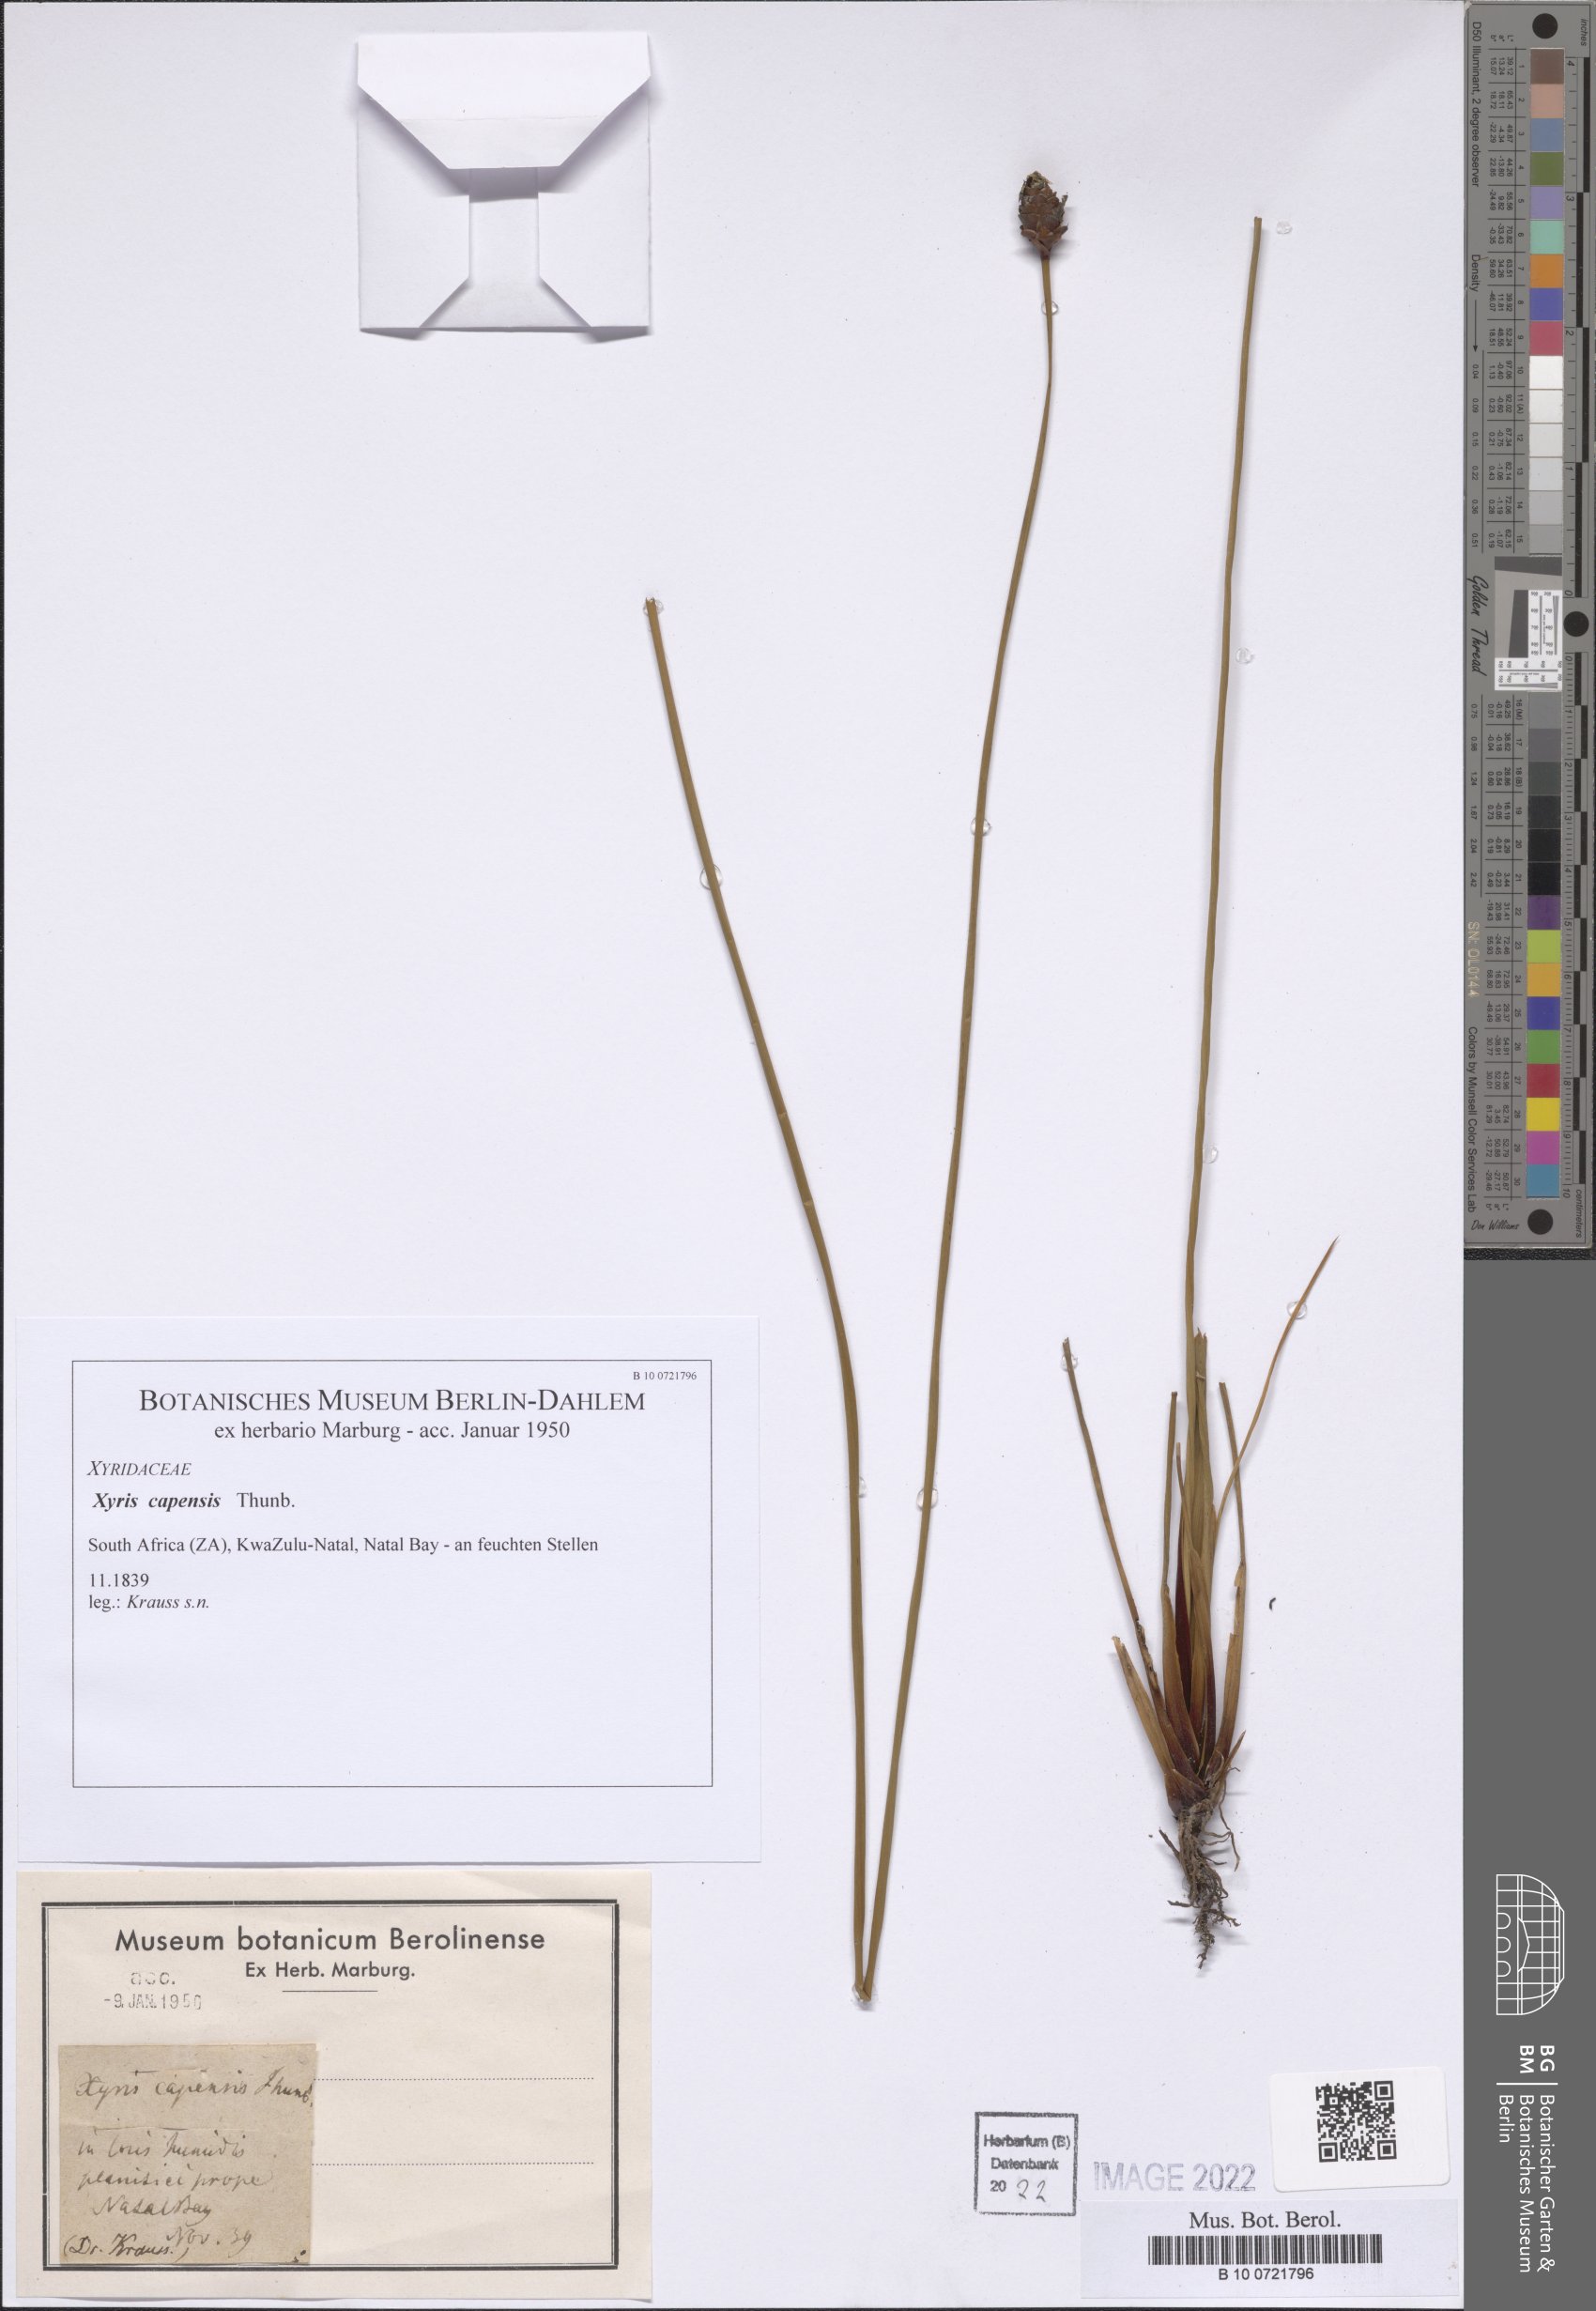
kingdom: Plantae
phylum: Tracheophyta
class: Liliopsida
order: Poales
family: Xyridaceae
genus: Xyris
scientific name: Xyris capensis
